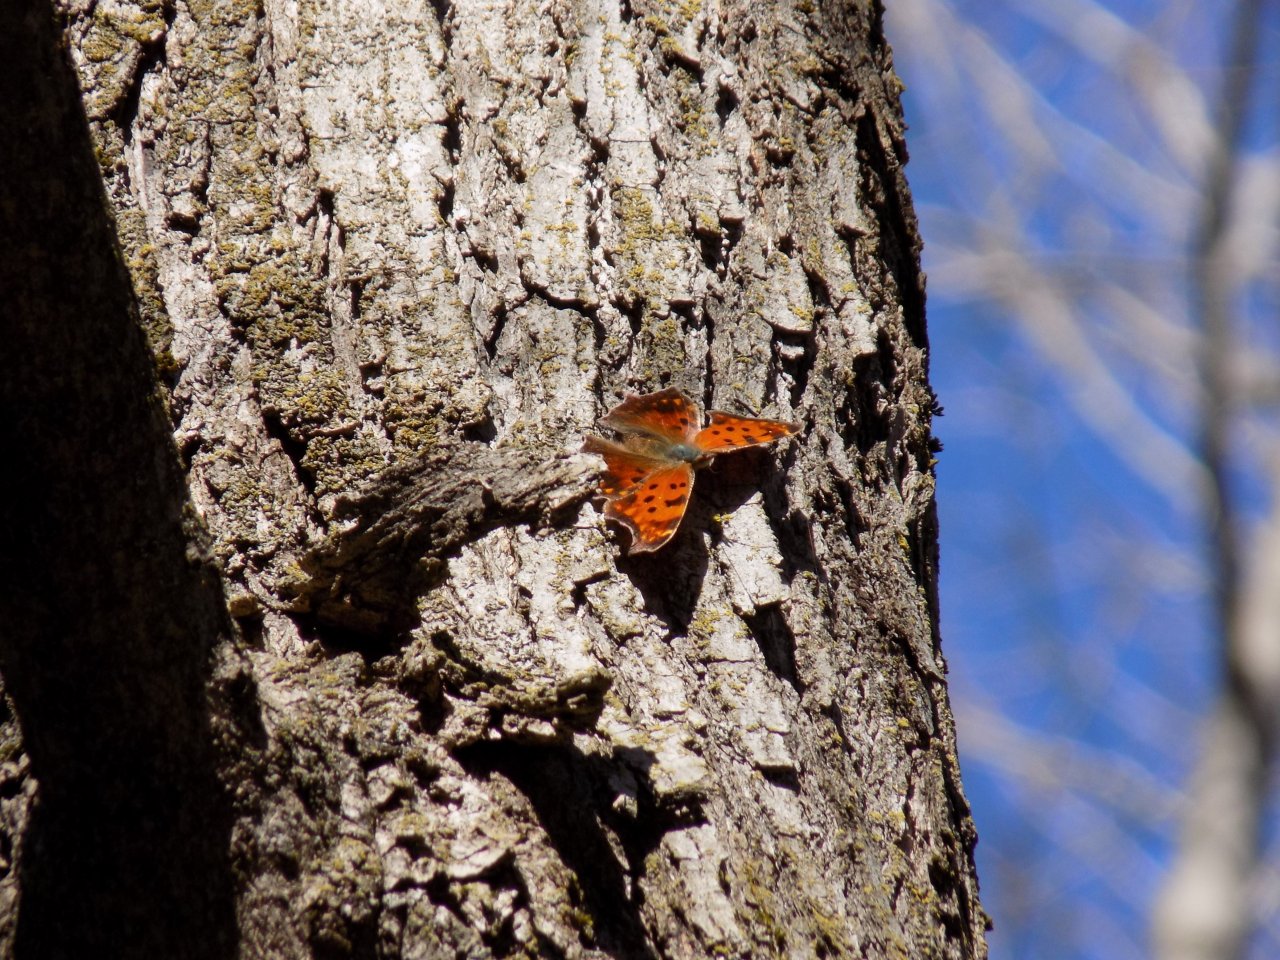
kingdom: Animalia
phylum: Arthropoda
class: Insecta
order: Lepidoptera
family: Nymphalidae
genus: Polygonia
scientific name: Polygonia comma
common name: Eastern Comma
